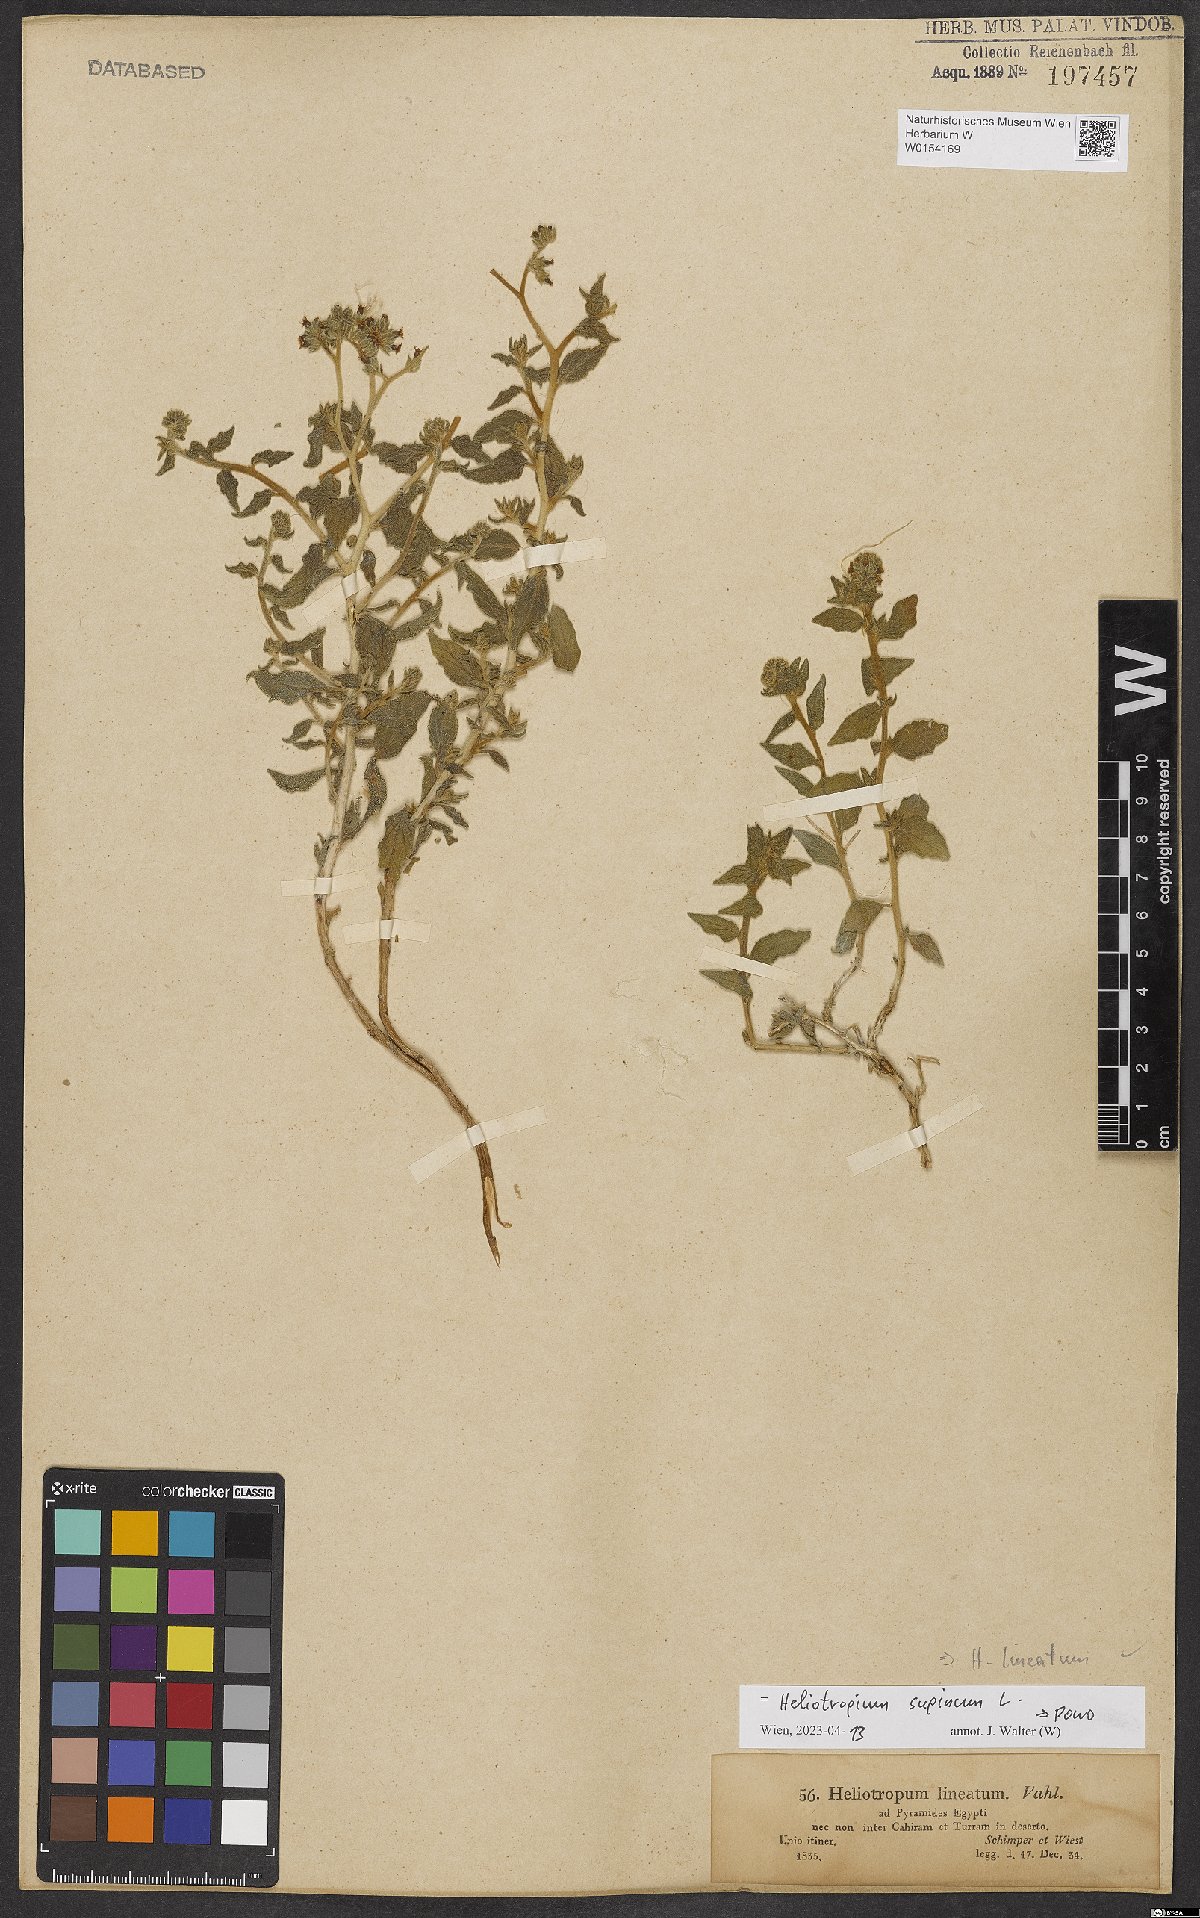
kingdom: Plantae
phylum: Tracheophyta
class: Magnoliopsida
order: Boraginales
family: Heliotropiaceae
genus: Heliotropium
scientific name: Heliotropium supinum
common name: Dwarf heliotrope
